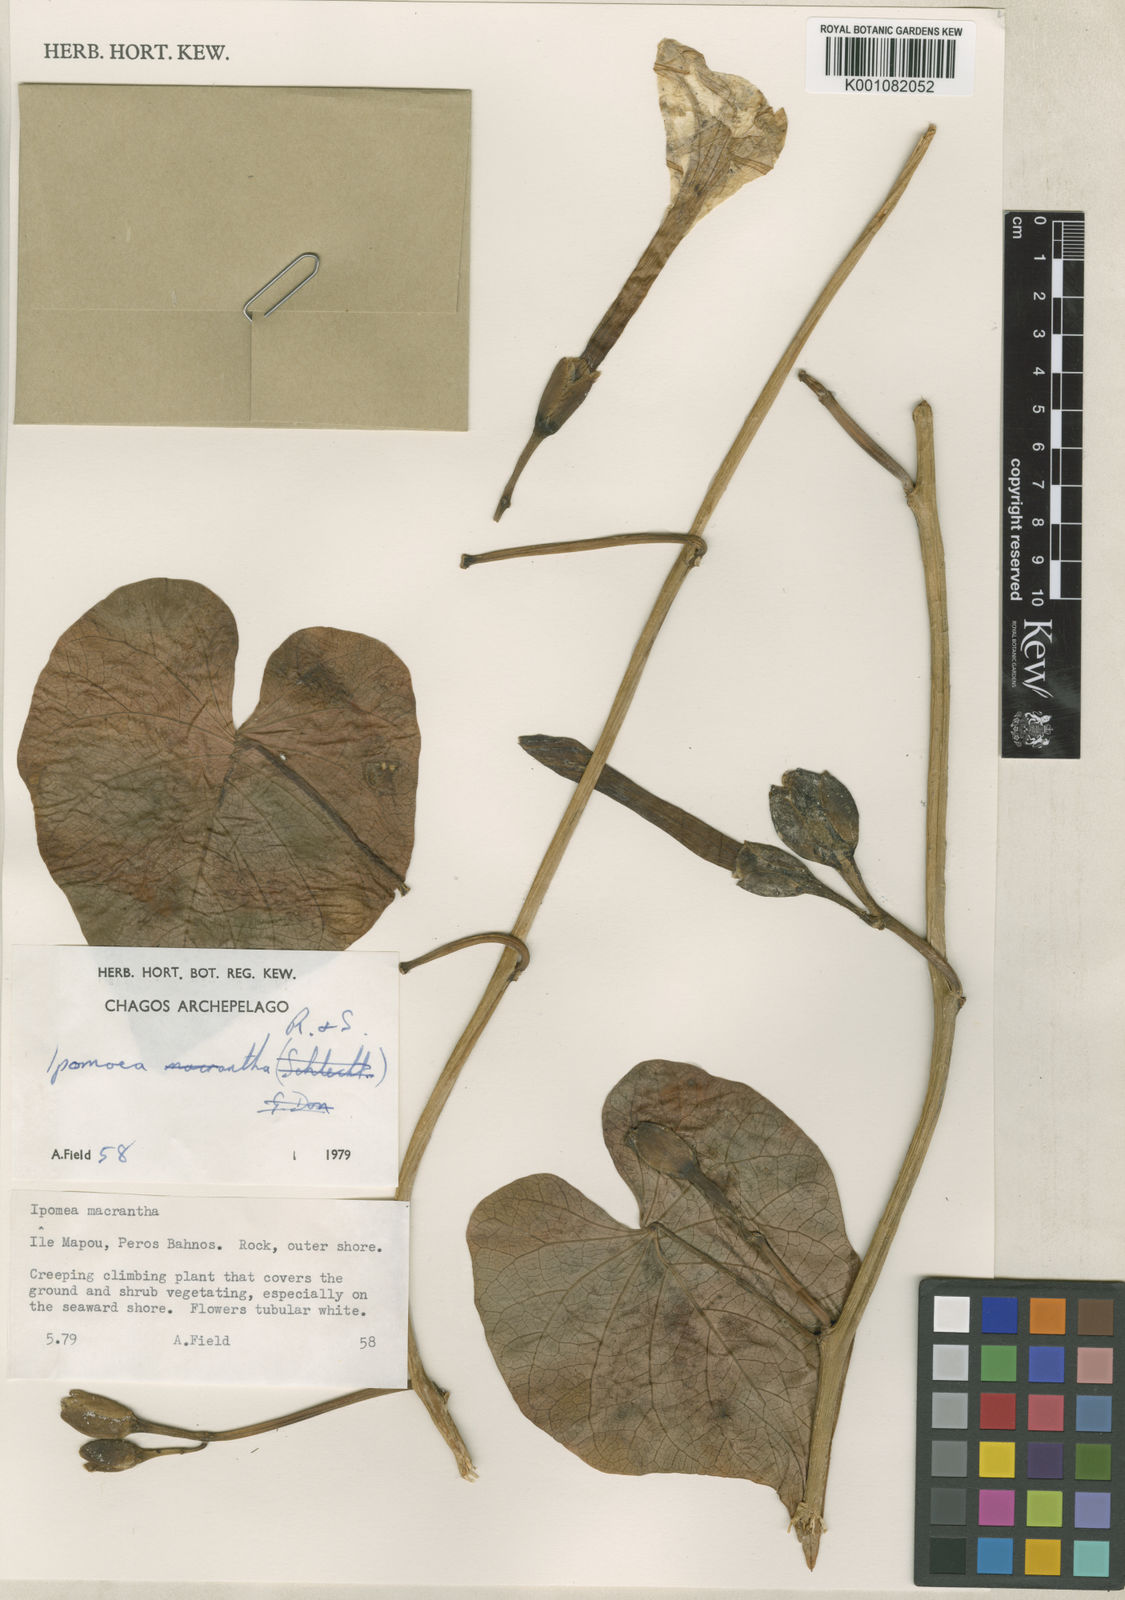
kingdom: Plantae
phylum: Tracheophyta
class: Magnoliopsida
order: Solanales
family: Convolvulaceae
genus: Ipomoea
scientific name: Ipomoea violacea
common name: Beach moonflower
